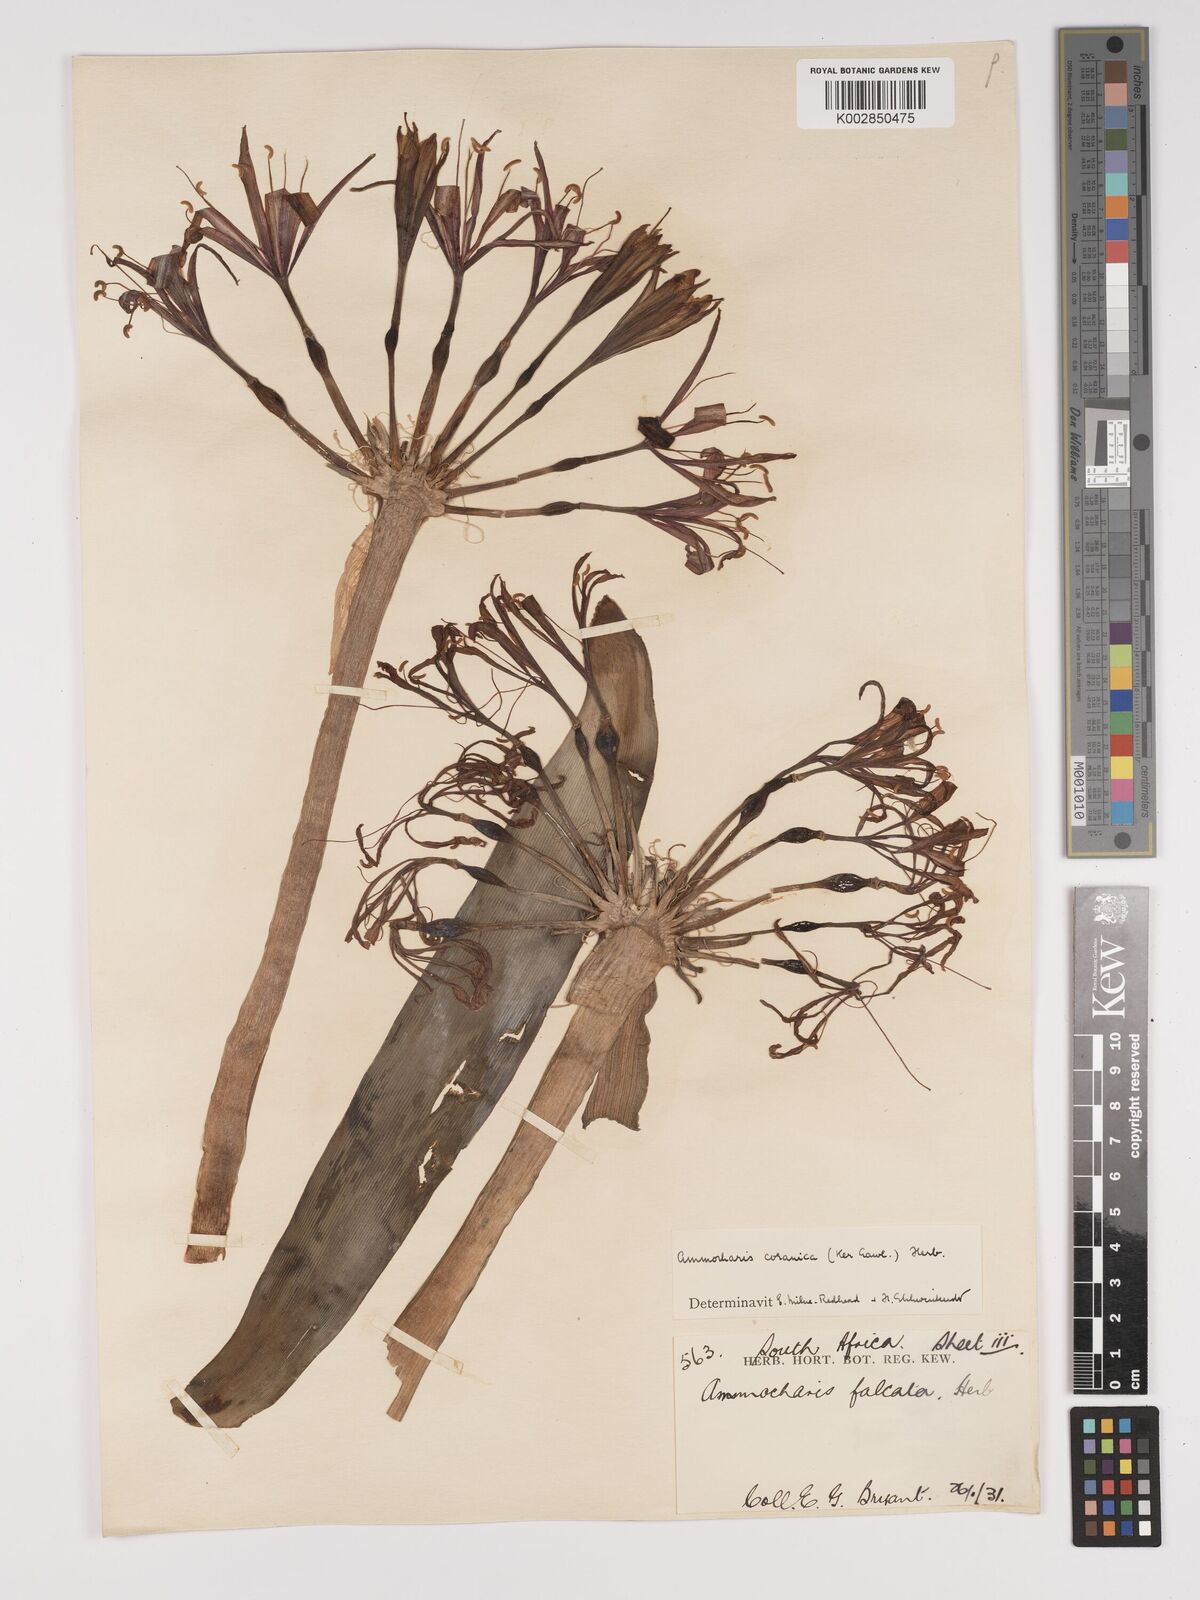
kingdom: Plantae
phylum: Tracheophyta
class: Liliopsida
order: Asparagales
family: Amaryllidaceae
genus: Ammocharis
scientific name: Ammocharis coranica
